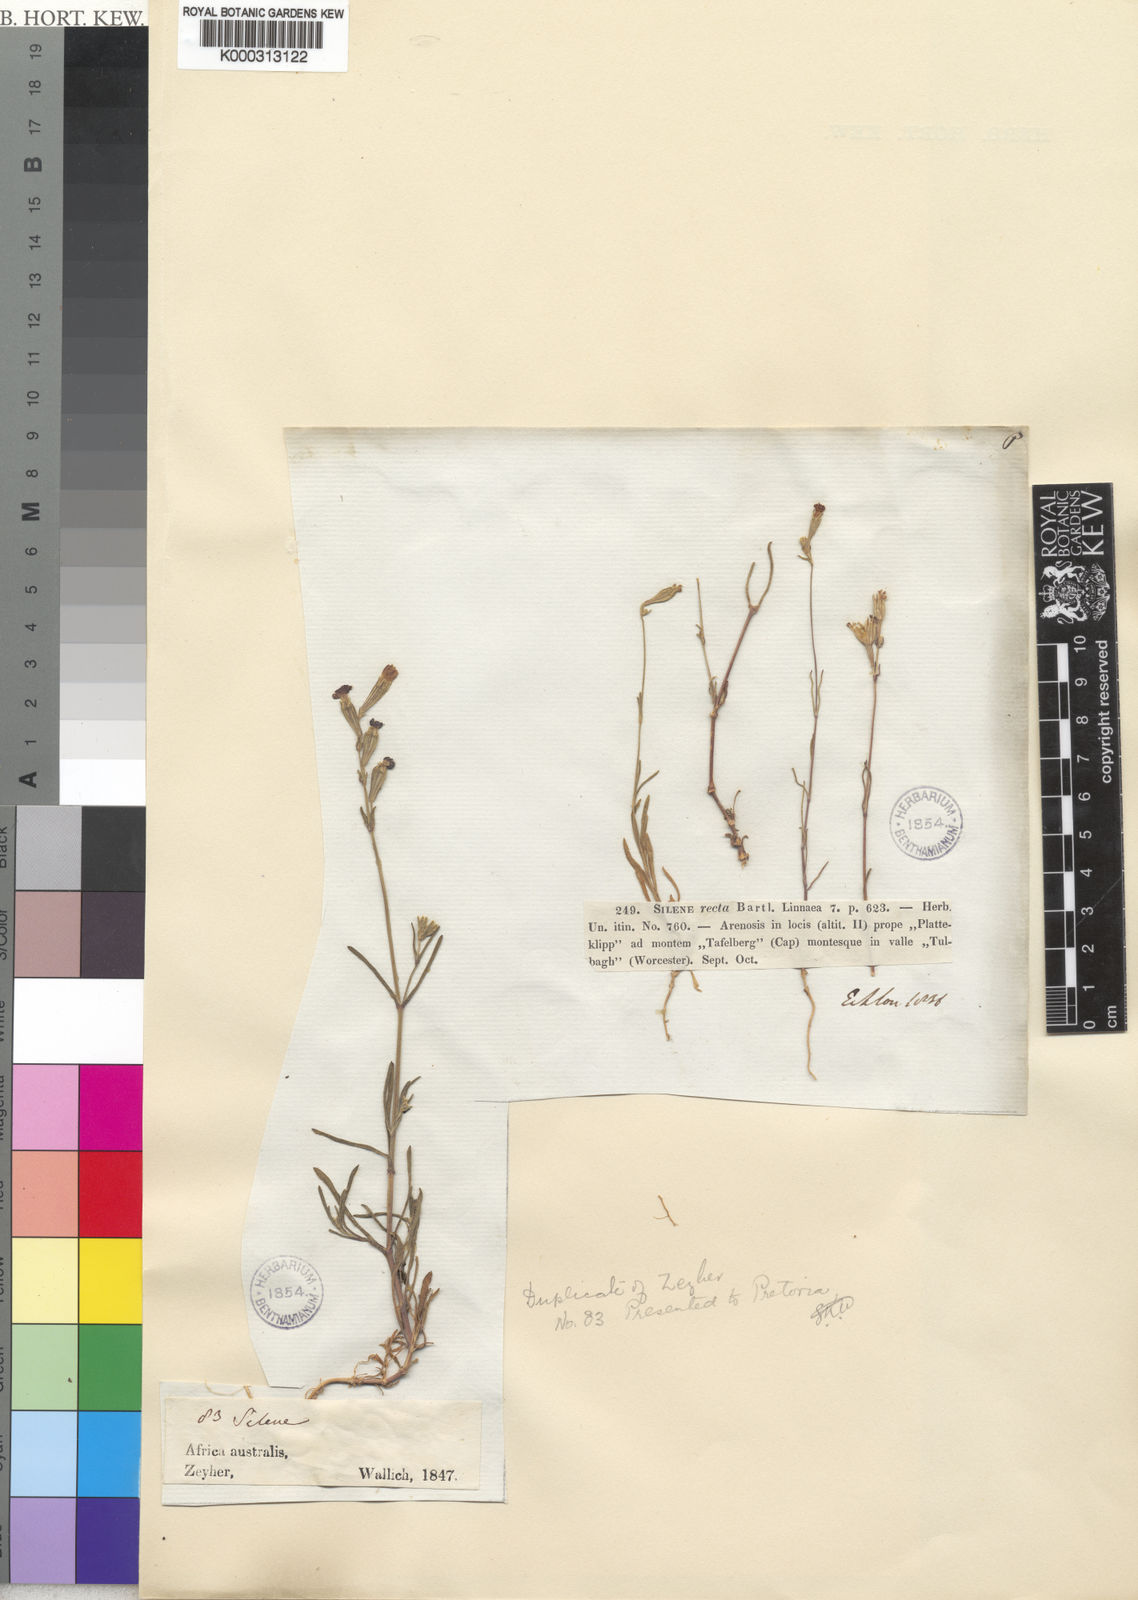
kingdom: Plantae
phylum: Tracheophyta
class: Magnoliopsida
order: Caryophyllales
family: Caryophyllaceae
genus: Silene
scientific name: Silene
